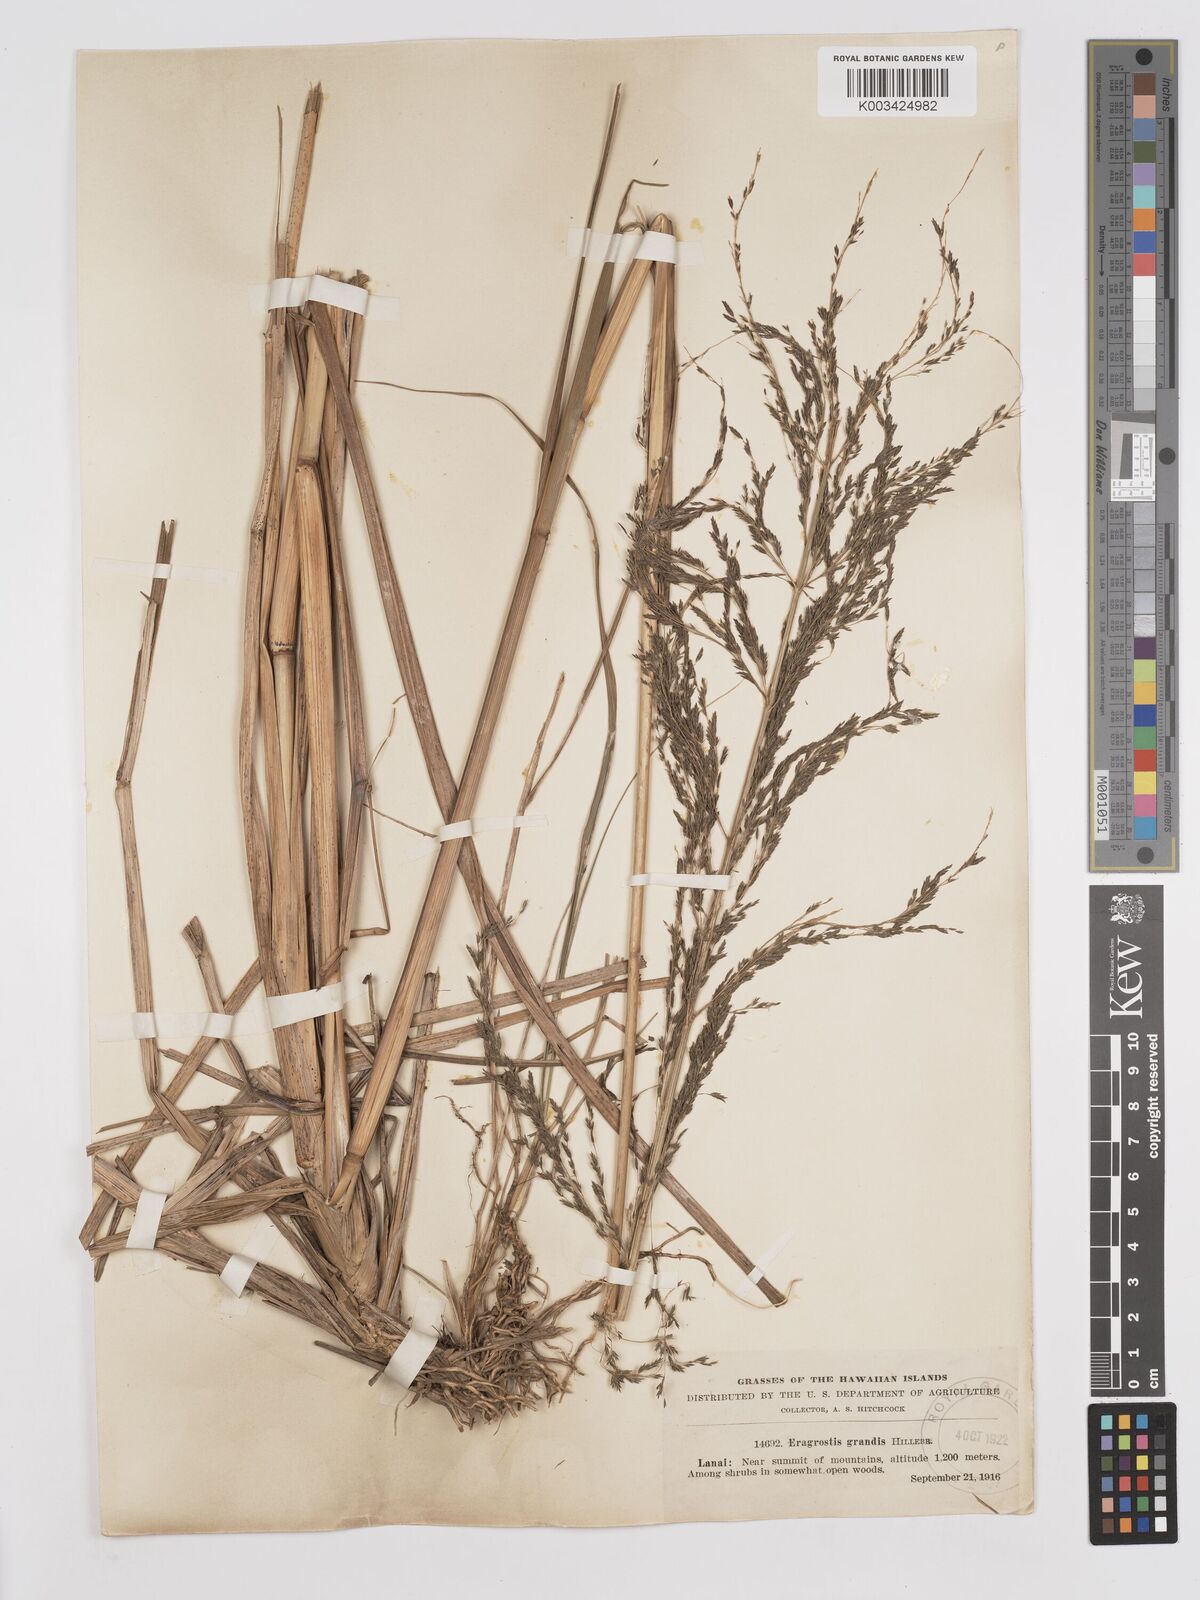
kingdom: Plantae
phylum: Tracheophyta
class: Liliopsida
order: Poales
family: Poaceae
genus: Eragrostis
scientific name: Eragrostis grandis
